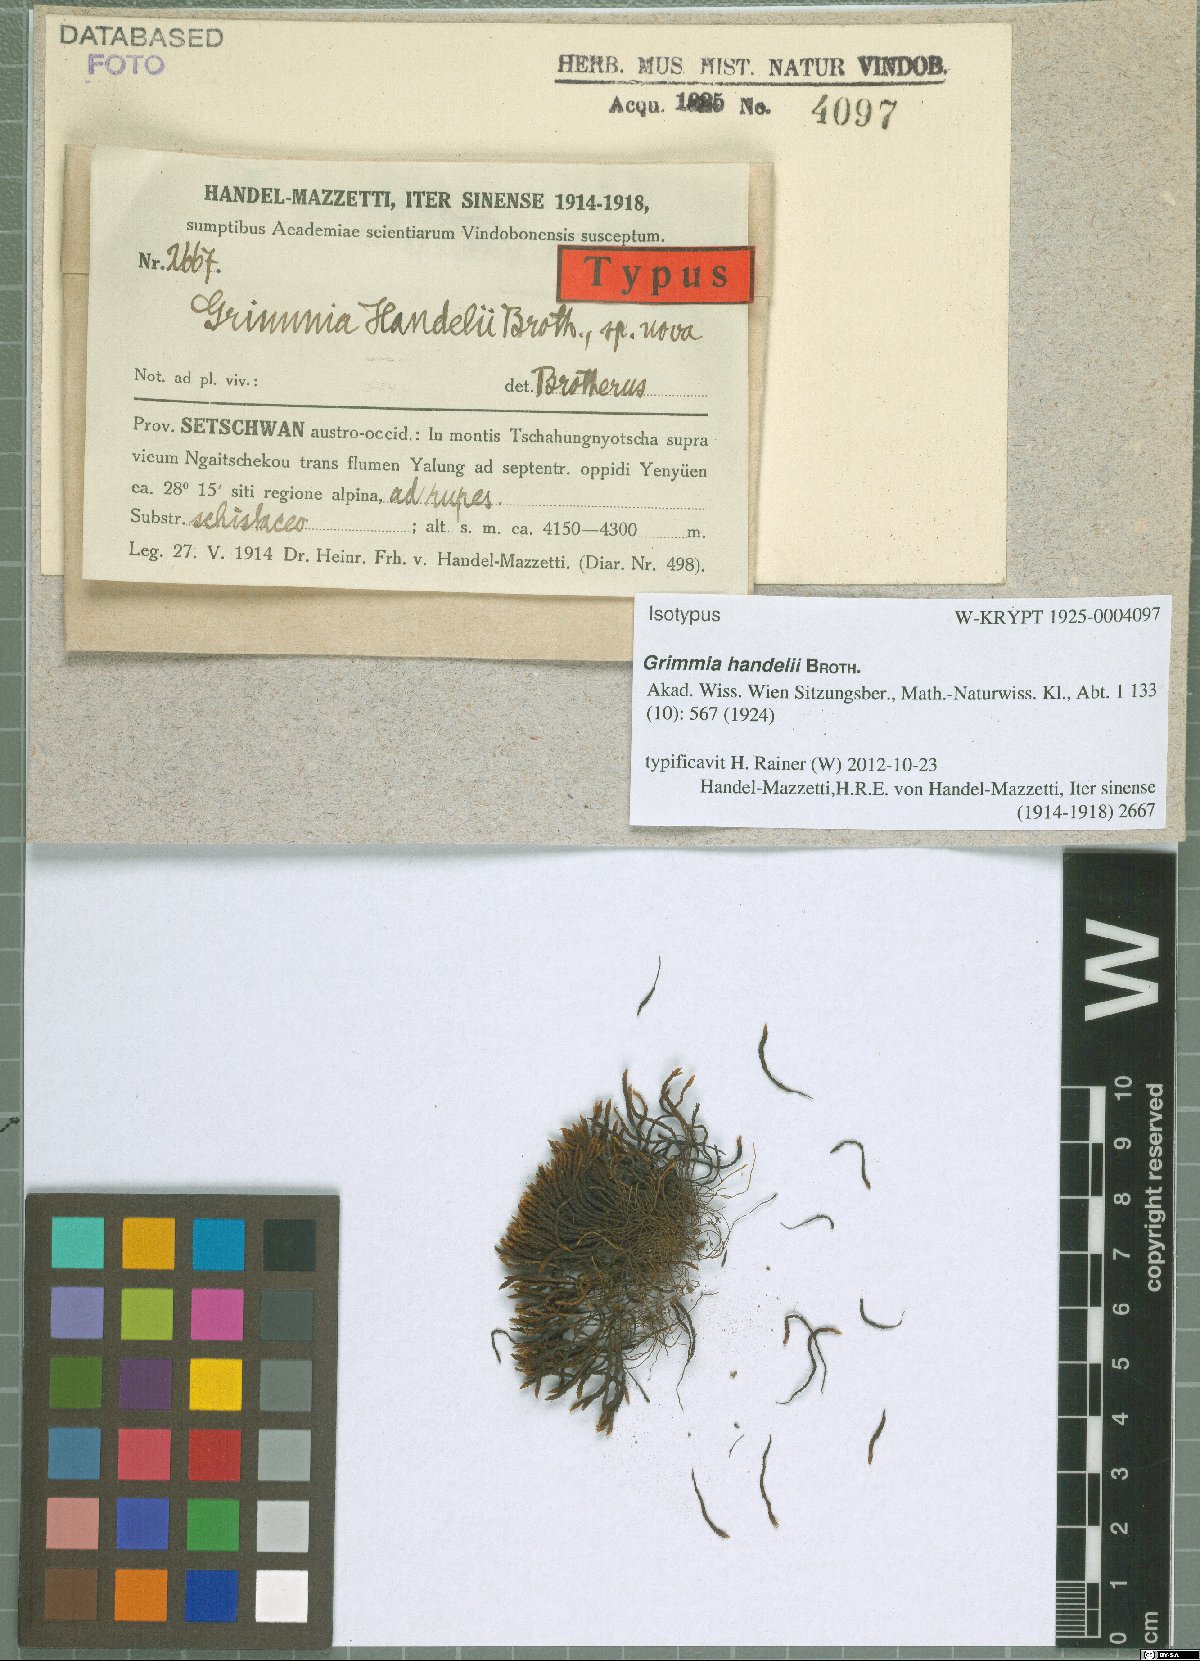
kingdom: Plantae
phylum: Bryophyta
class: Bryopsida
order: Grimmiales
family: Grimmiaceae
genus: Grimmia
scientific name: Grimmia handelii
